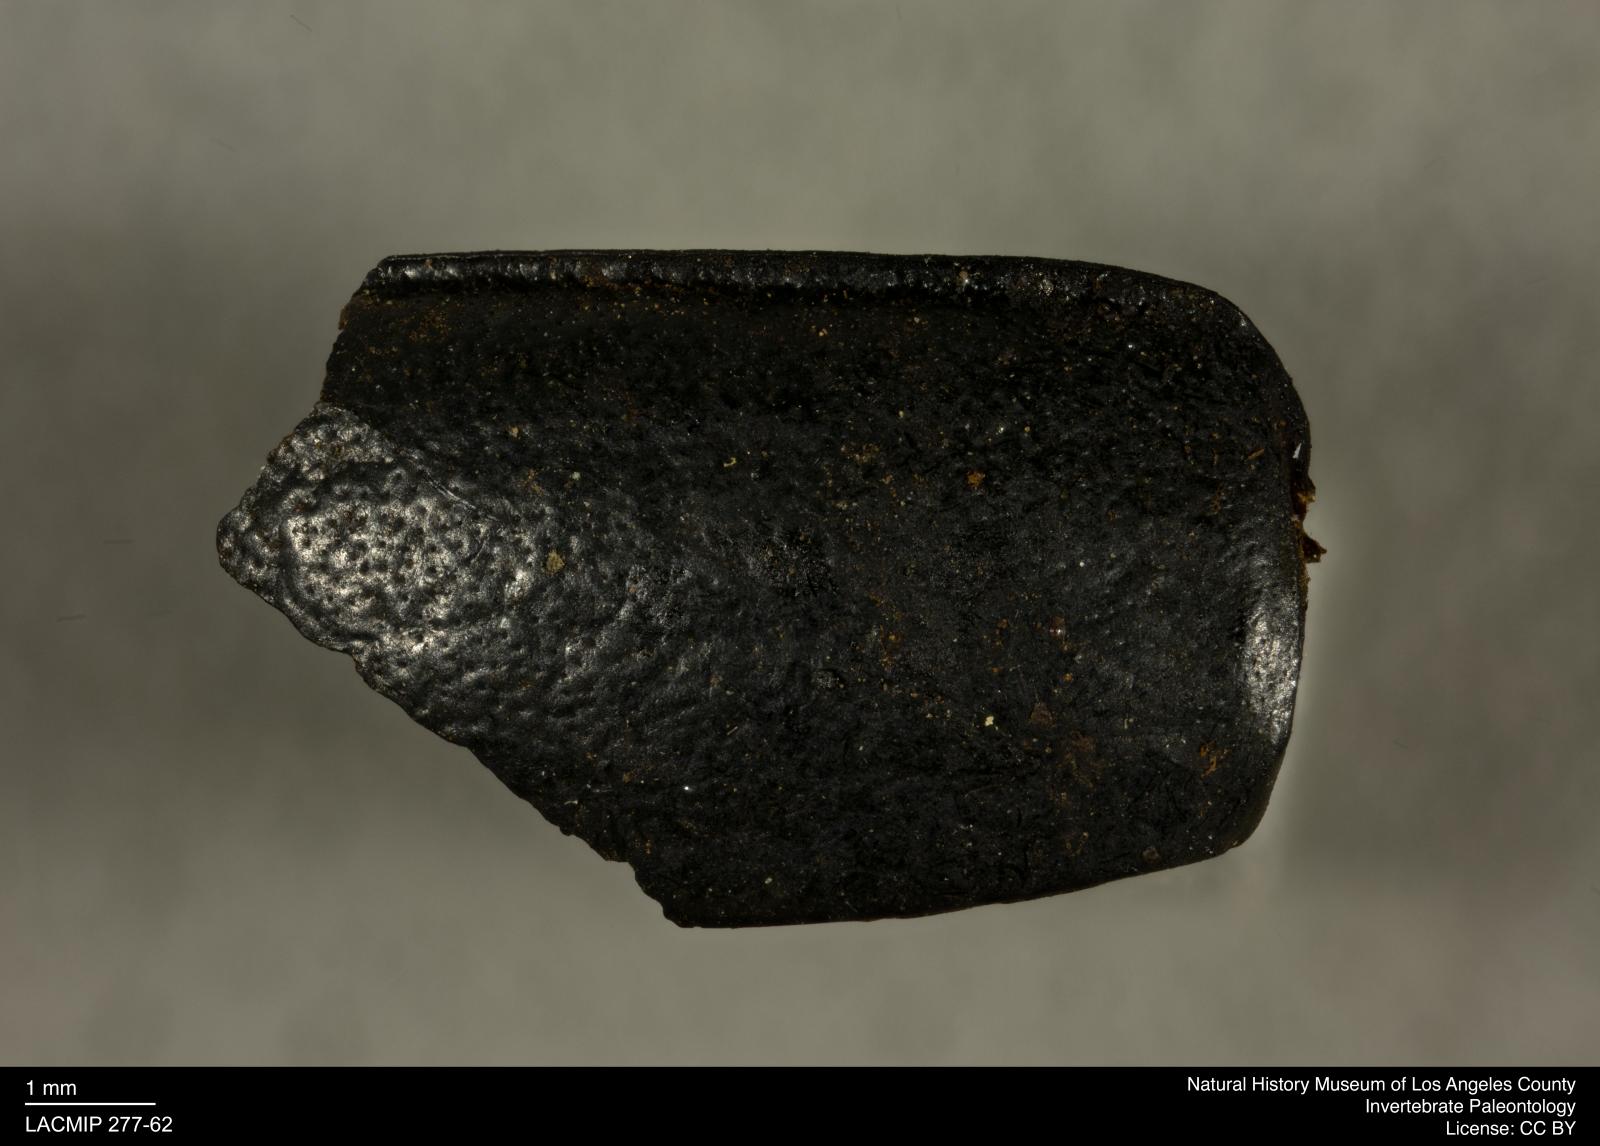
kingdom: Animalia
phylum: Arthropoda
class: Insecta
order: Coleoptera
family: Tenebrionidae
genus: Coniontis
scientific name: Coniontis abdominalis
